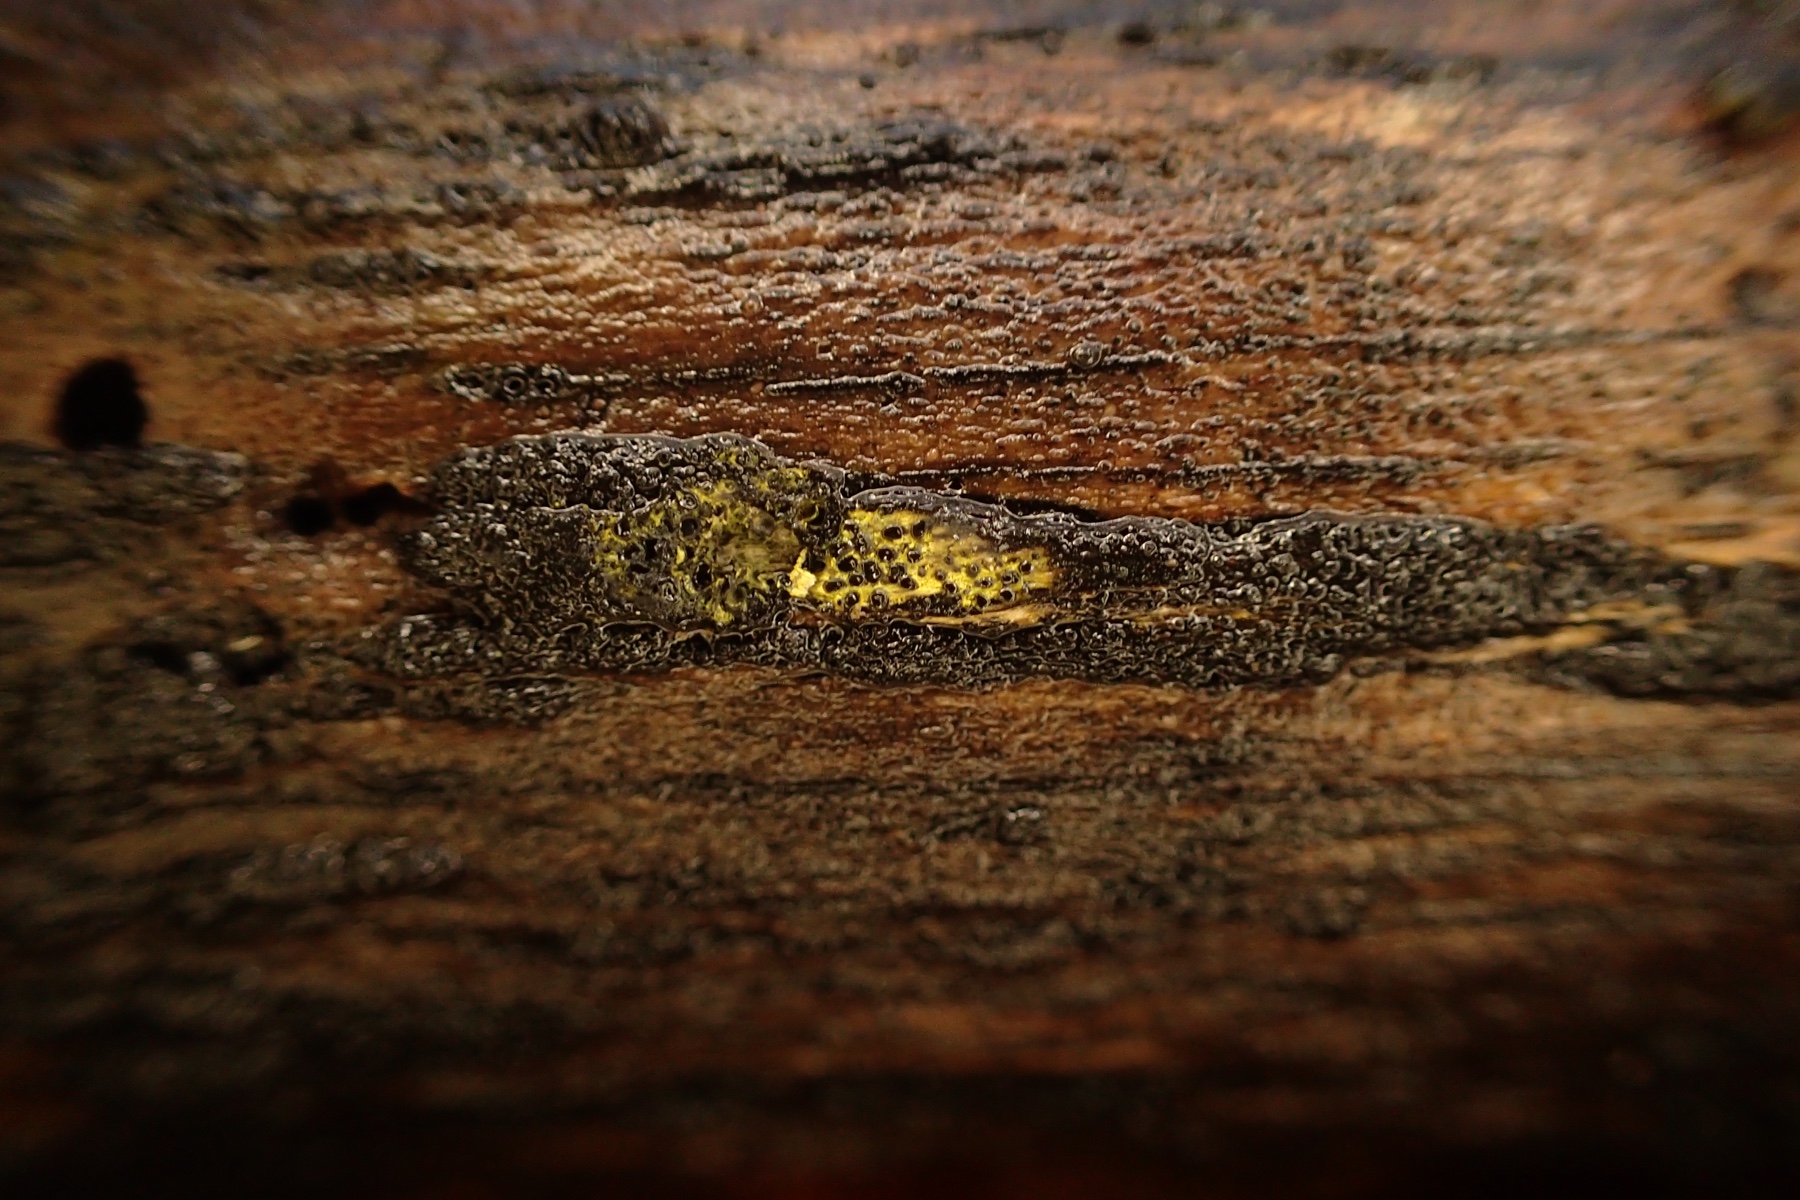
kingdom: Fungi
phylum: Ascomycota
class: Sordariomycetes
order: Xylariales
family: Diatrypaceae
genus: Eutypa
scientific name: Eutypa flavovirens
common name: grønkødet kulskorpe
